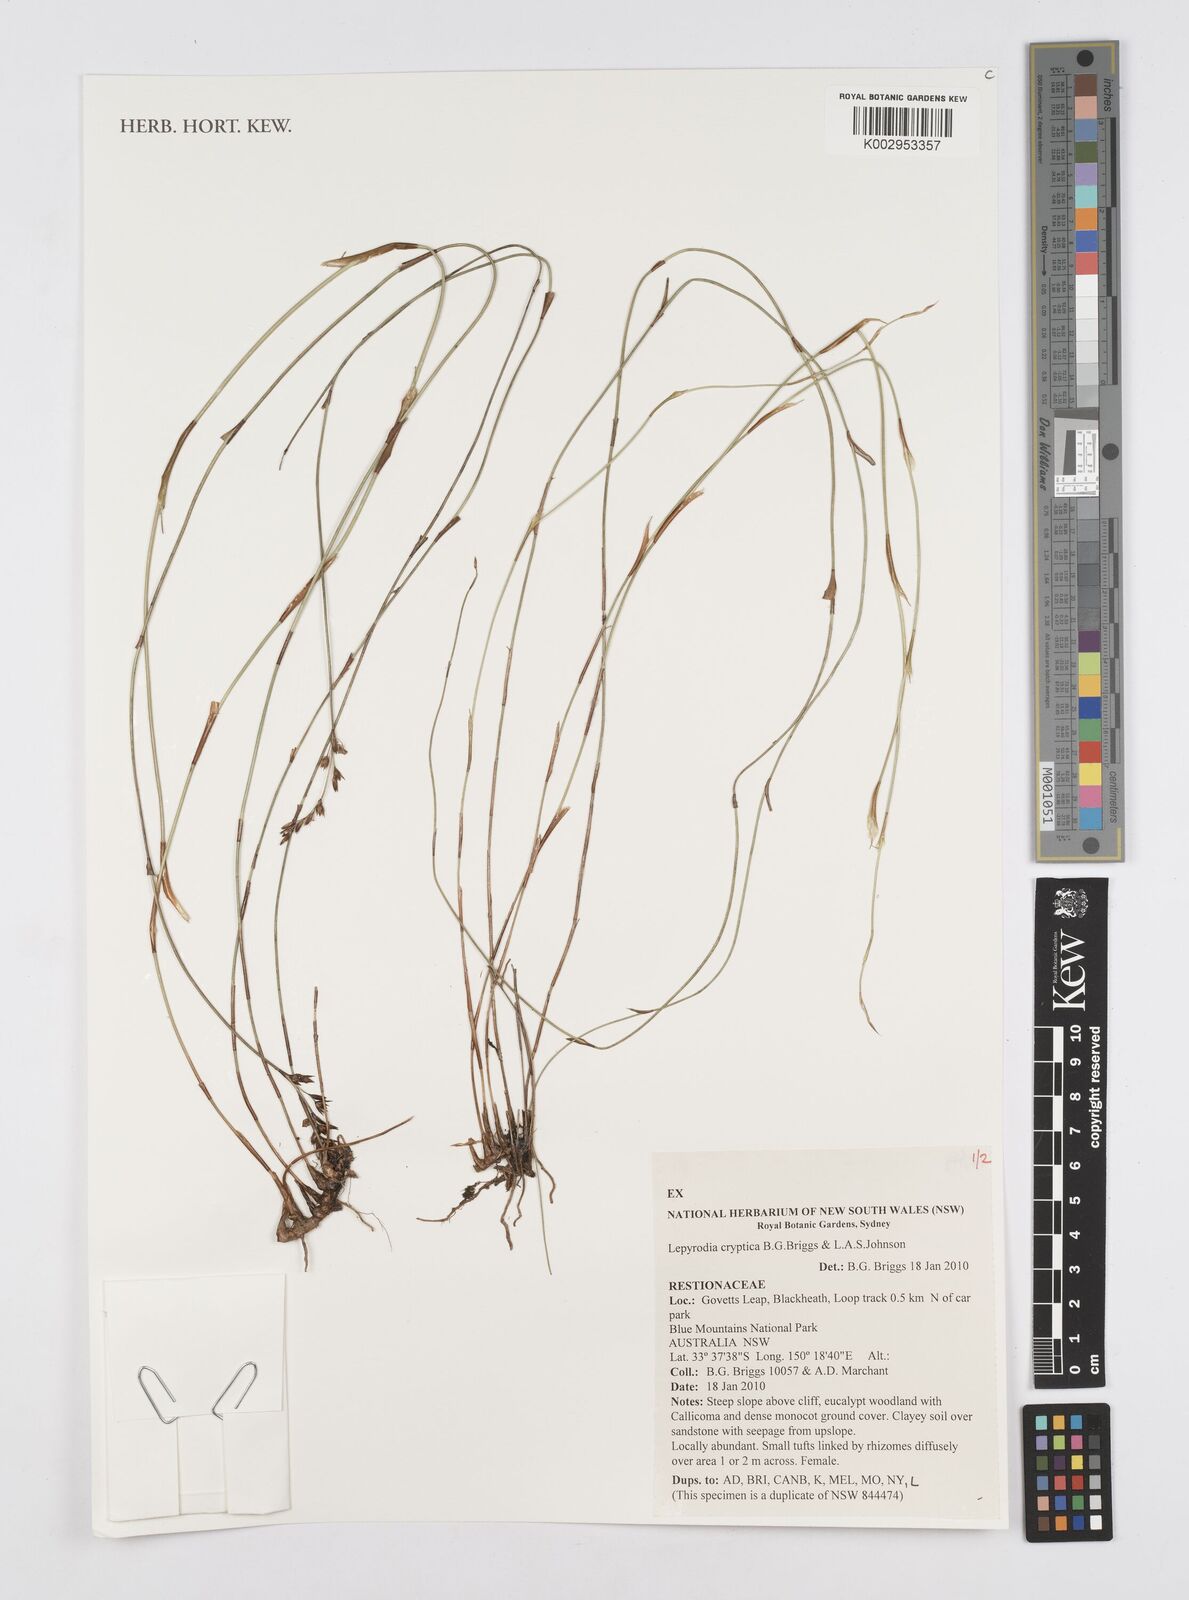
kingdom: Plantae
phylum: Tracheophyta
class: Liliopsida
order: Poales
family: Restionaceae
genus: Lepyrodia
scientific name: Lepyrodia cryptica
